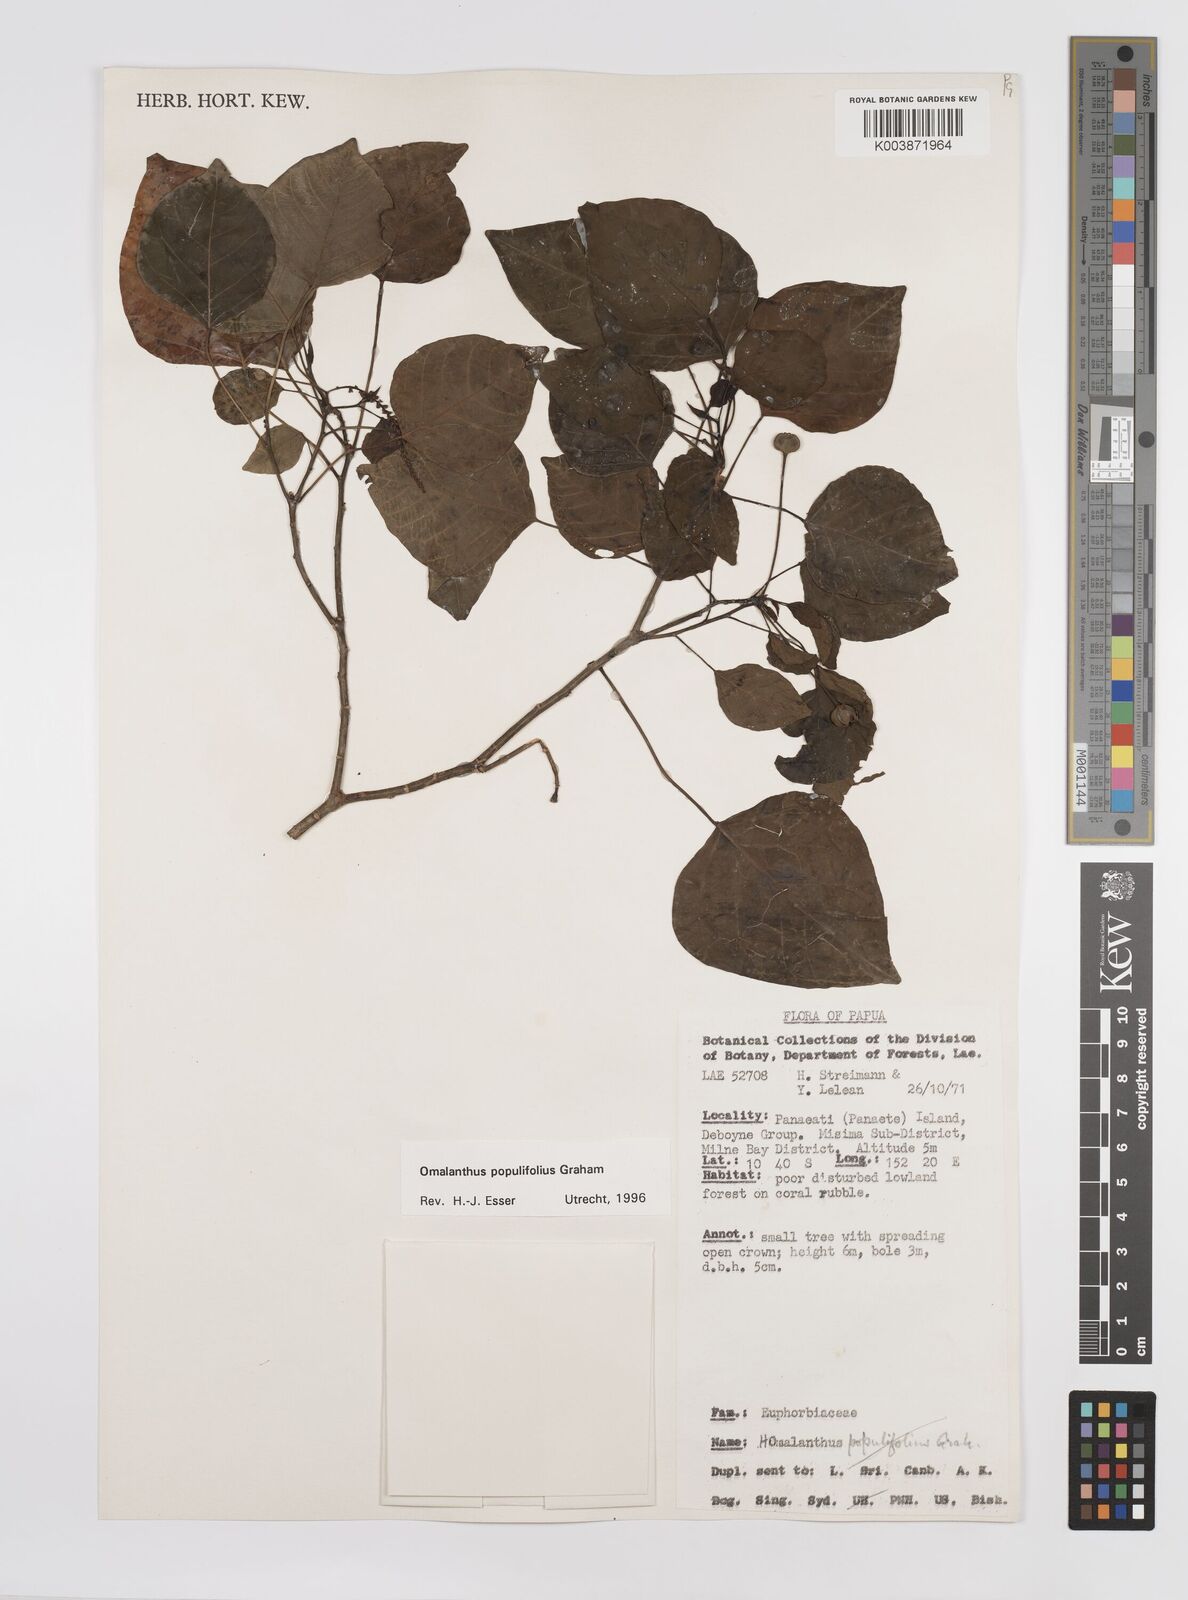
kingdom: Plantae
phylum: Tracheophyta
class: Magnoliopsida
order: Malpighiales
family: Euphorbiaceae
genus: Homalanthus
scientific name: Homalanthus populifolius
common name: Queensland poplar
